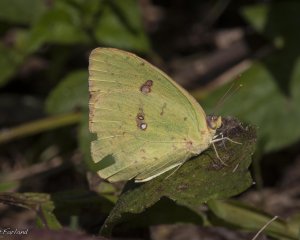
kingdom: Animalia
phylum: Arthropoda
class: Insecta
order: Lepidoptera
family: Pieridae
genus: Phoebis
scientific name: Phoebis sennae
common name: Cloudless Sulphur
